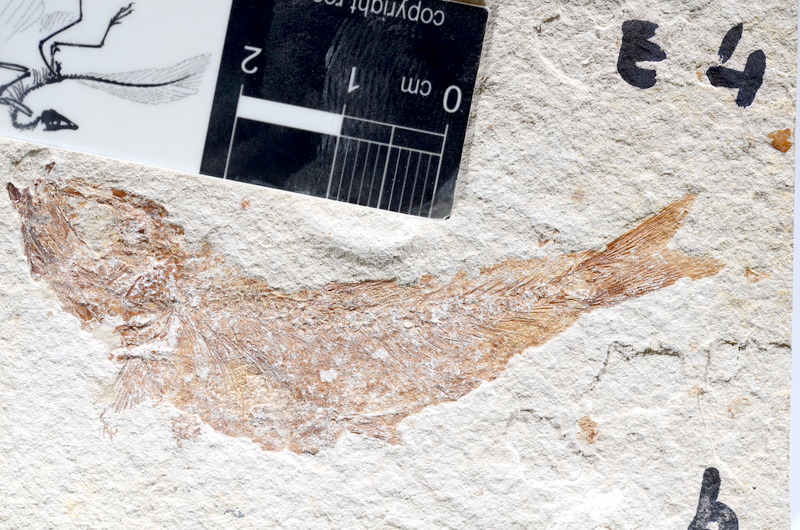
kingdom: Animalia
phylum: Chordata
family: Ascalaboidae
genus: Tharsis
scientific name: Tharsis dubius
